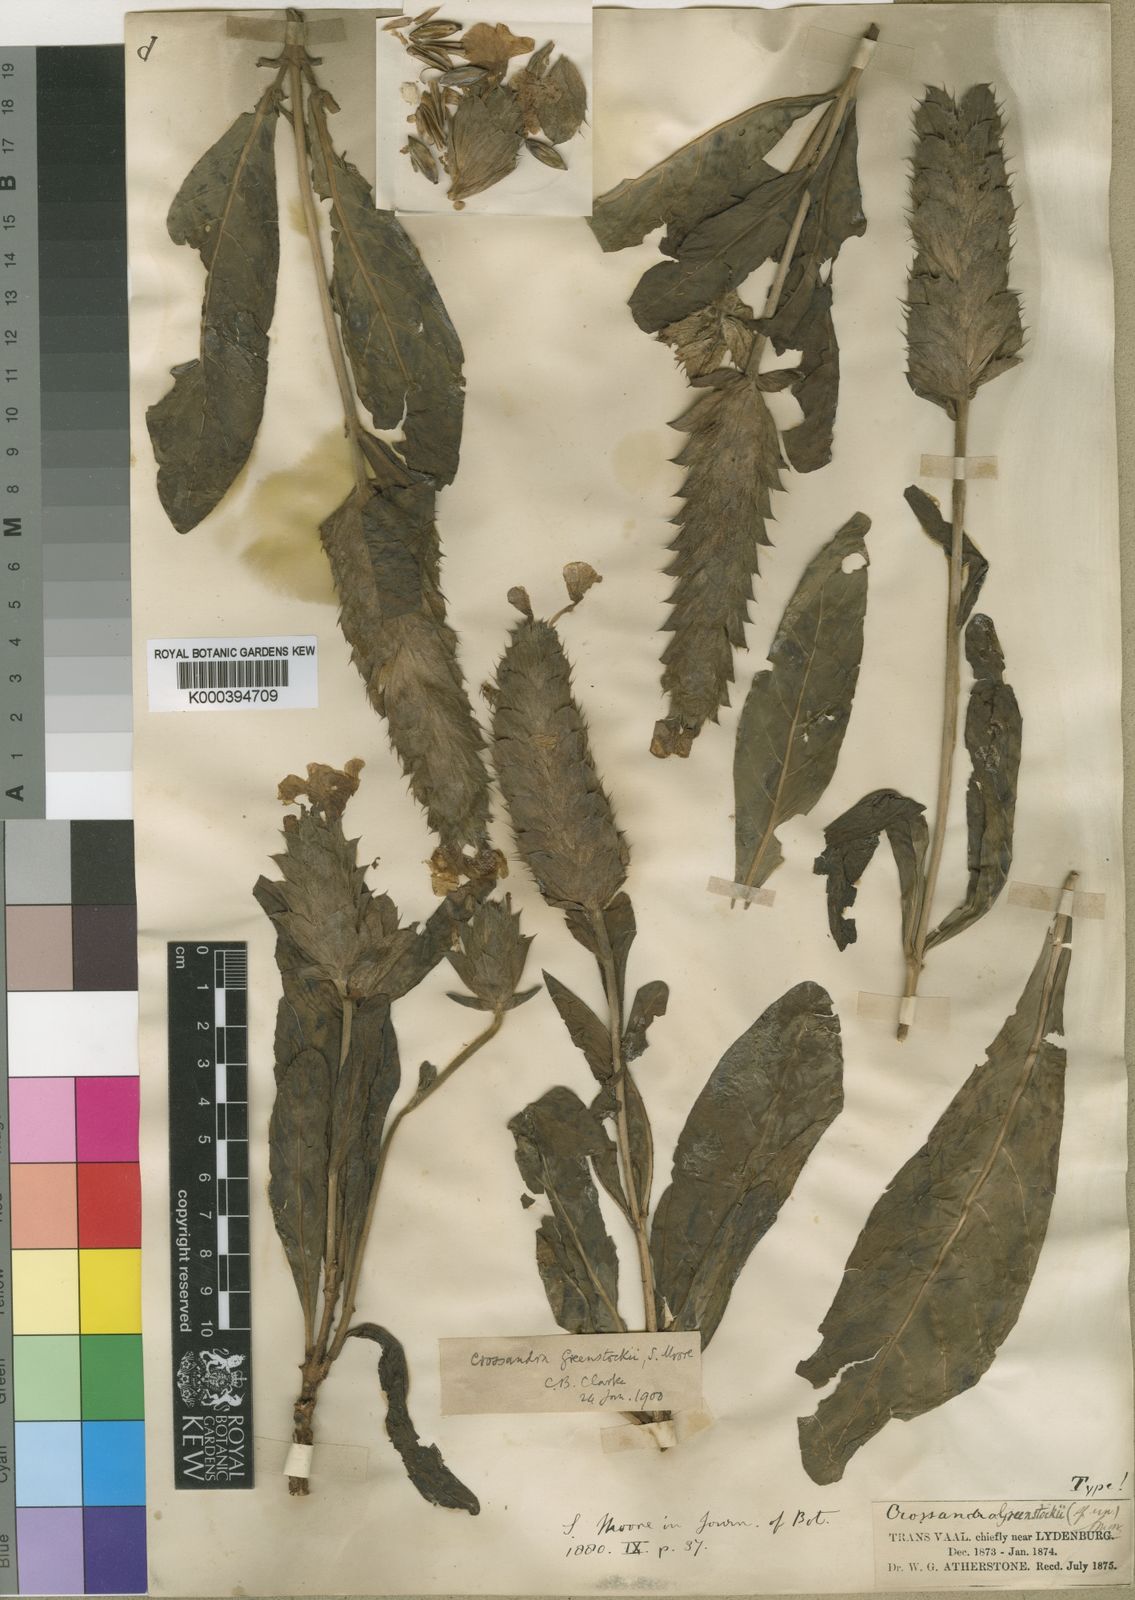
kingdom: Plantae
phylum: Tracheophyta
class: Magnoliopsida
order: Lamiales
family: Acanthaceae
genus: Crossandra
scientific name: Crossandra greenstockii
